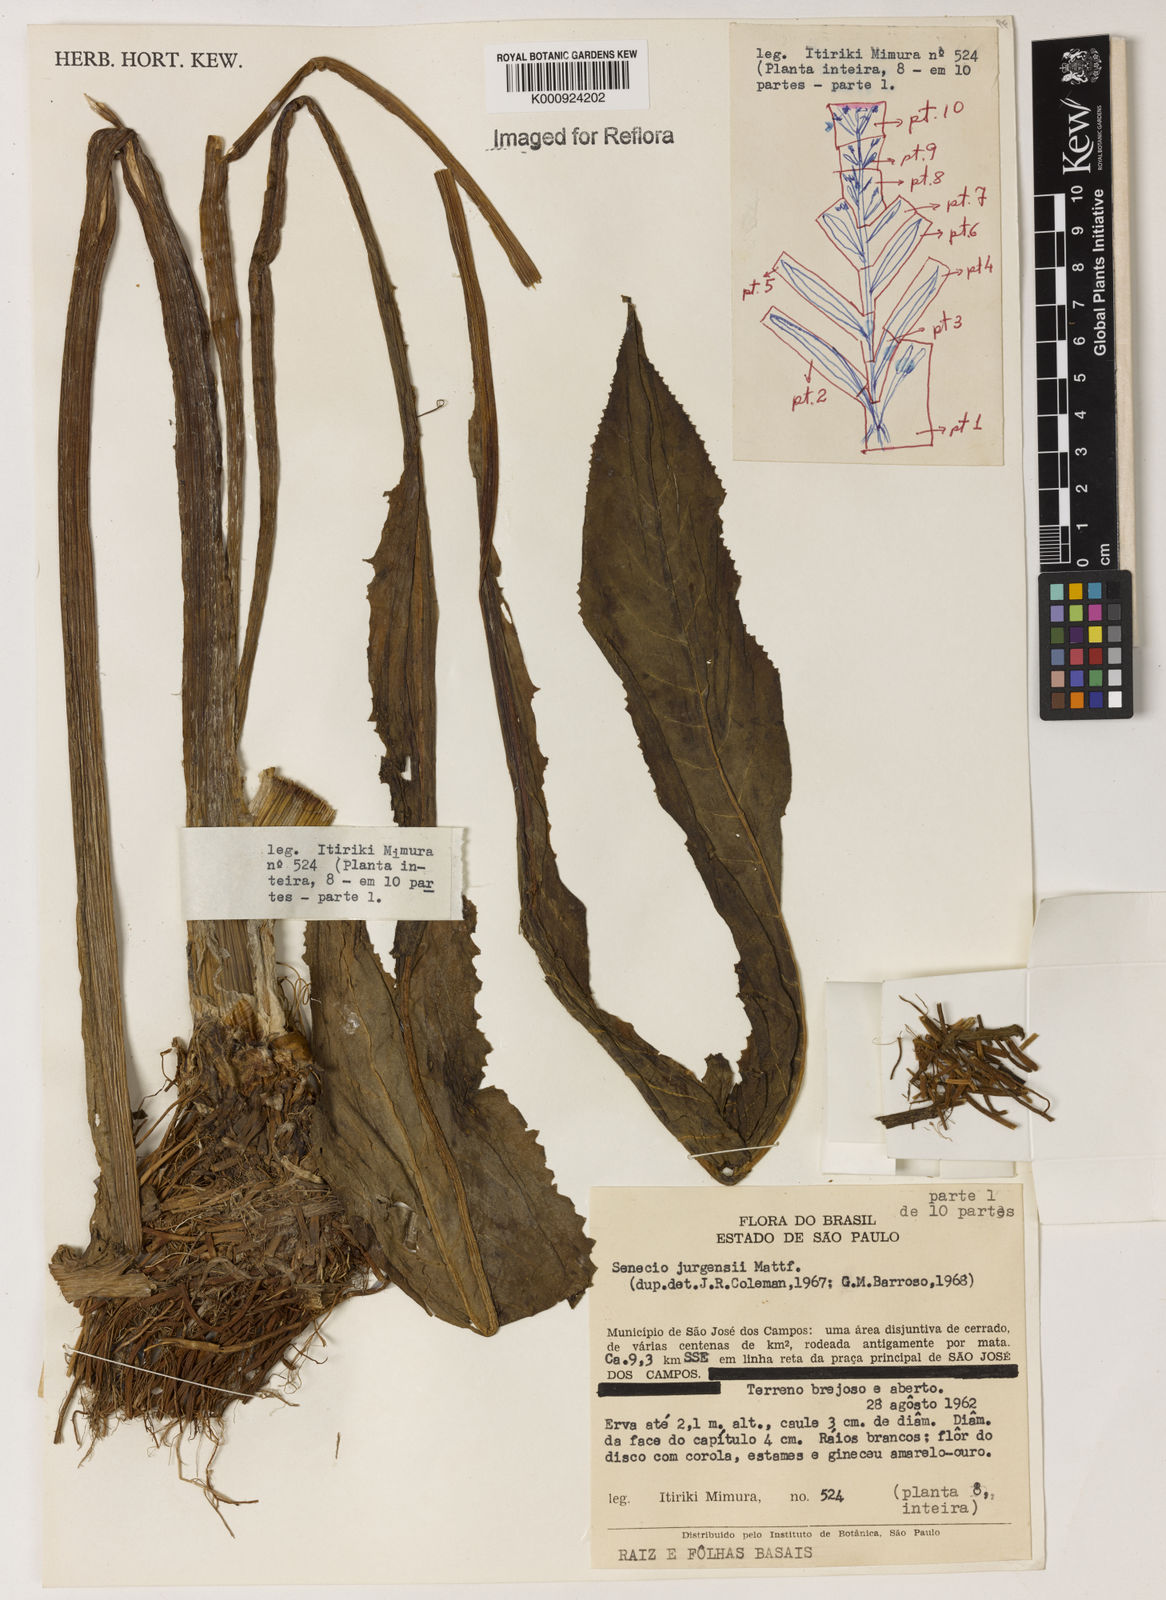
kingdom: Plantae
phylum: Tracheophyta
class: Magnoliopsida
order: Asterales
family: Asteraceae
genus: Senecio
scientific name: Senecio juergensii
